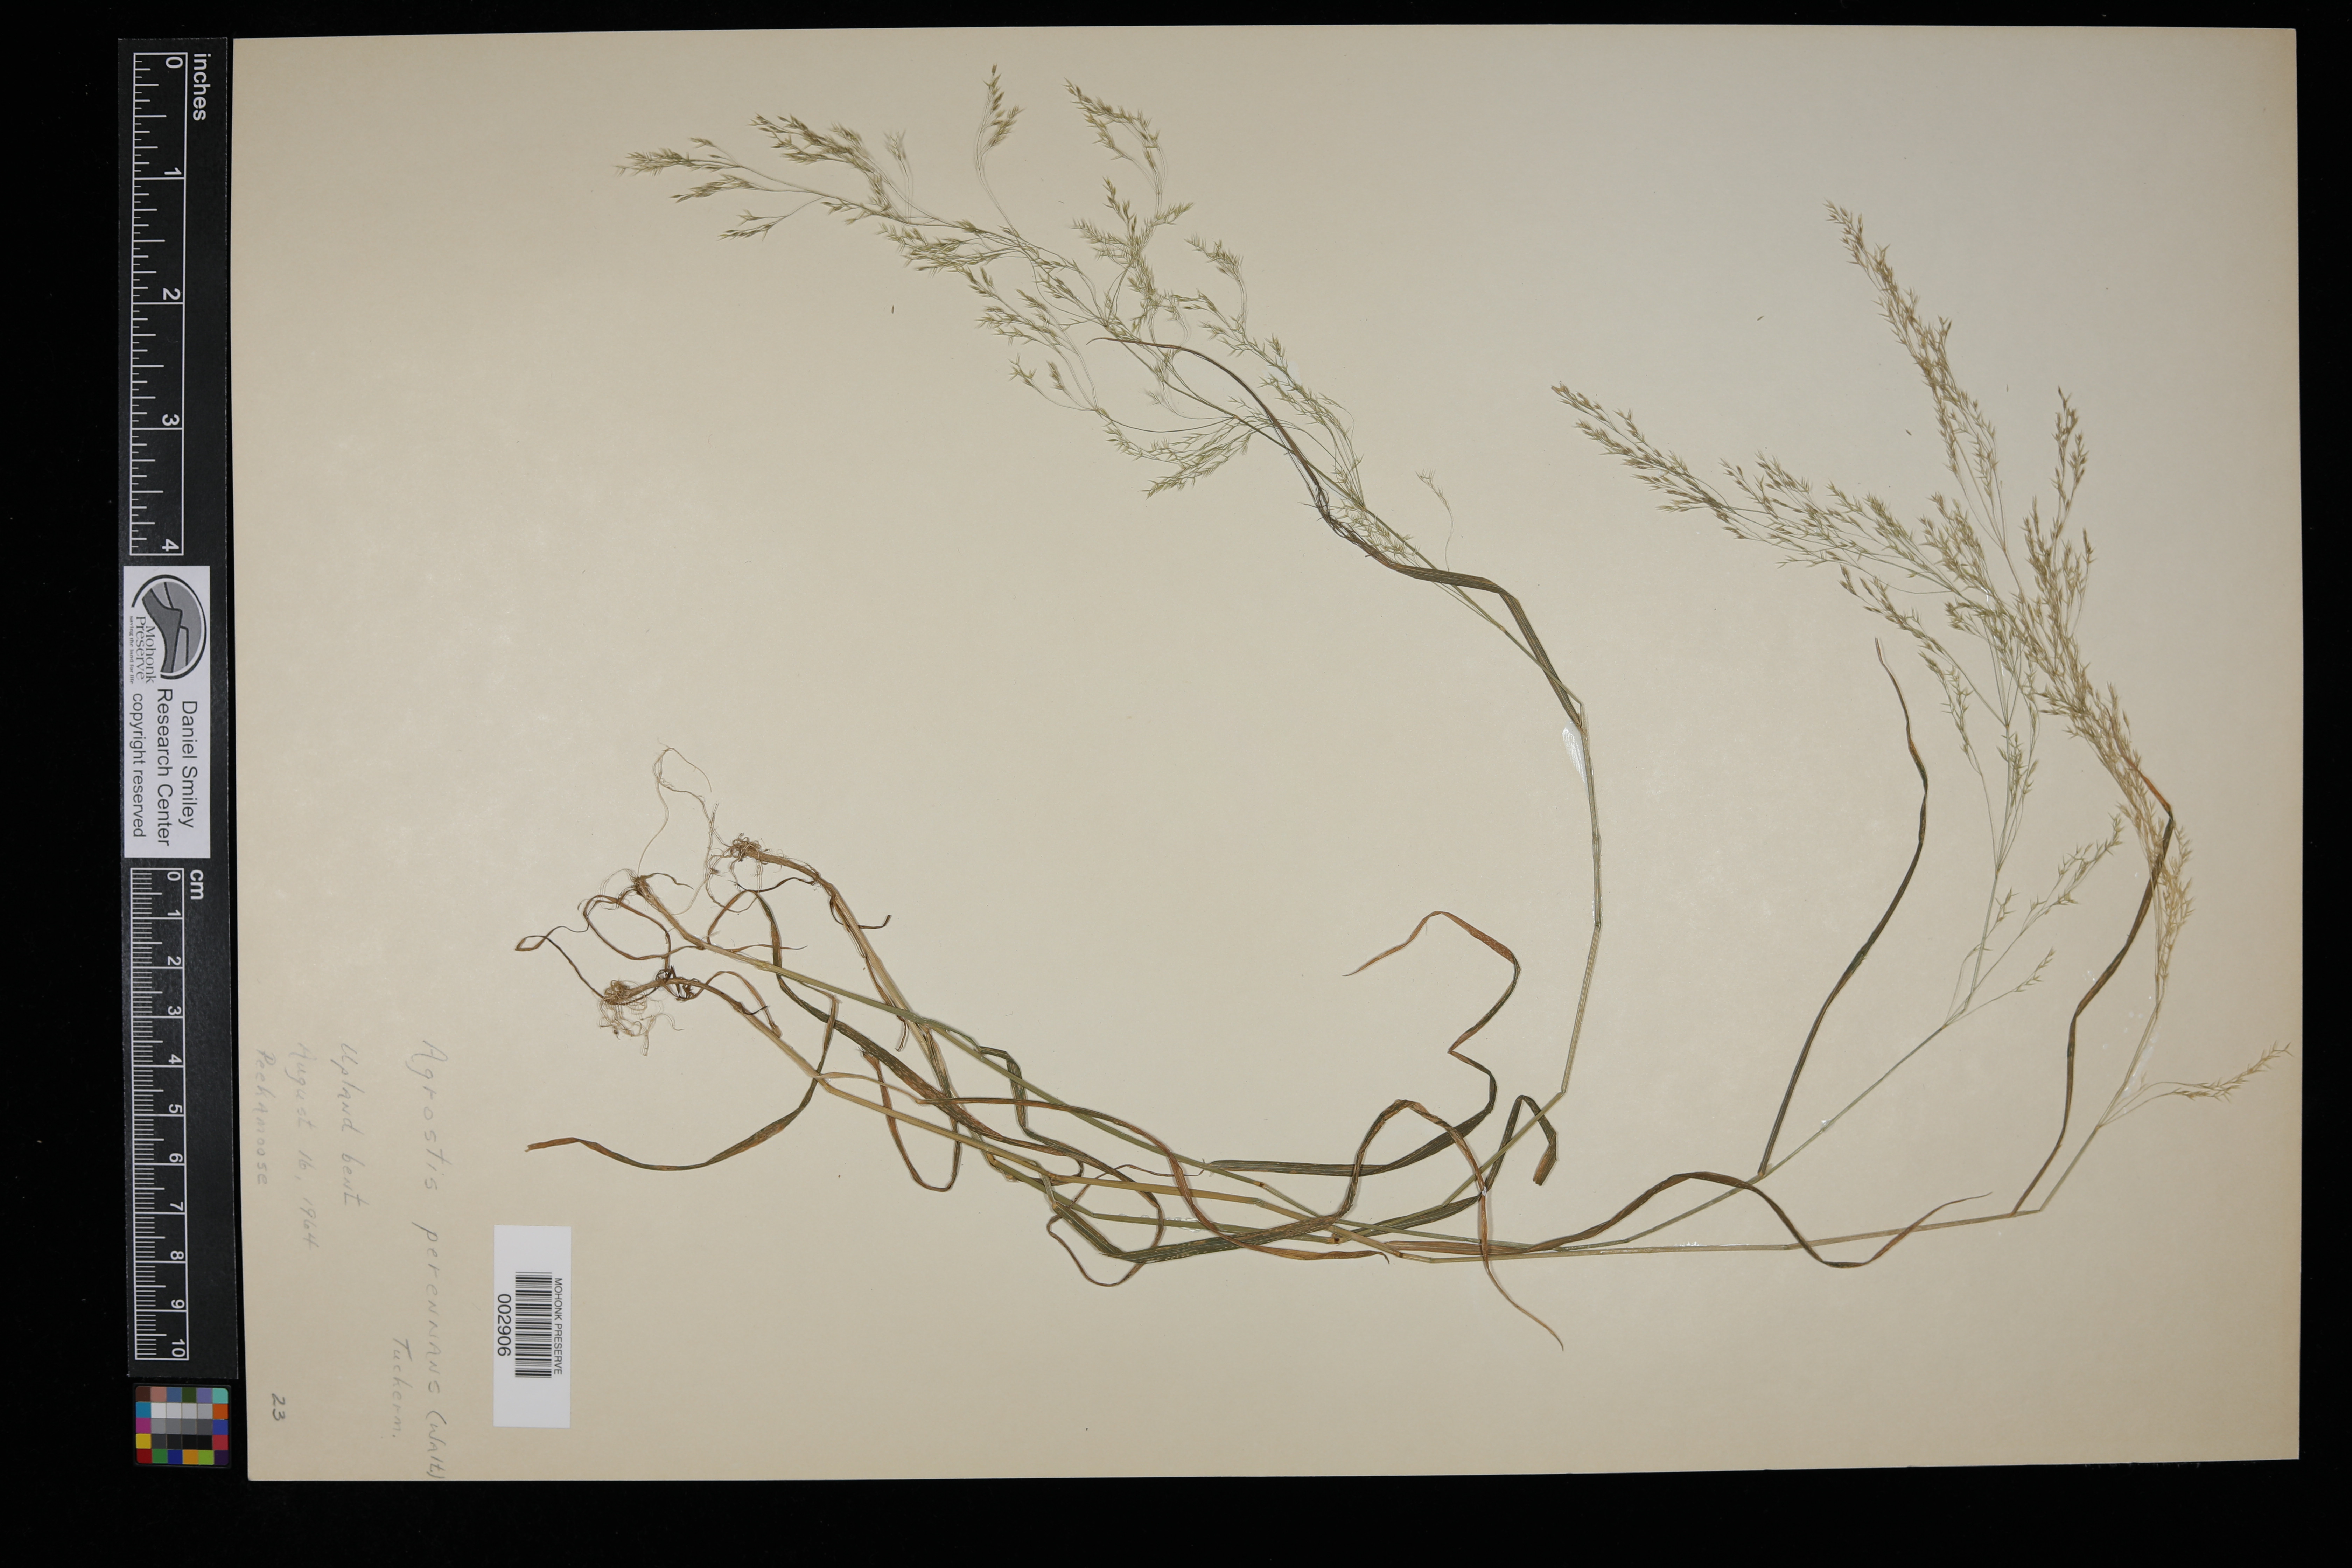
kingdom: Plantae
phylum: Tracheophyta
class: Liliopsida
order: Poales
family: Poaceae
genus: Agrostis
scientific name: Agrostis perennans
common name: Autumn bent
